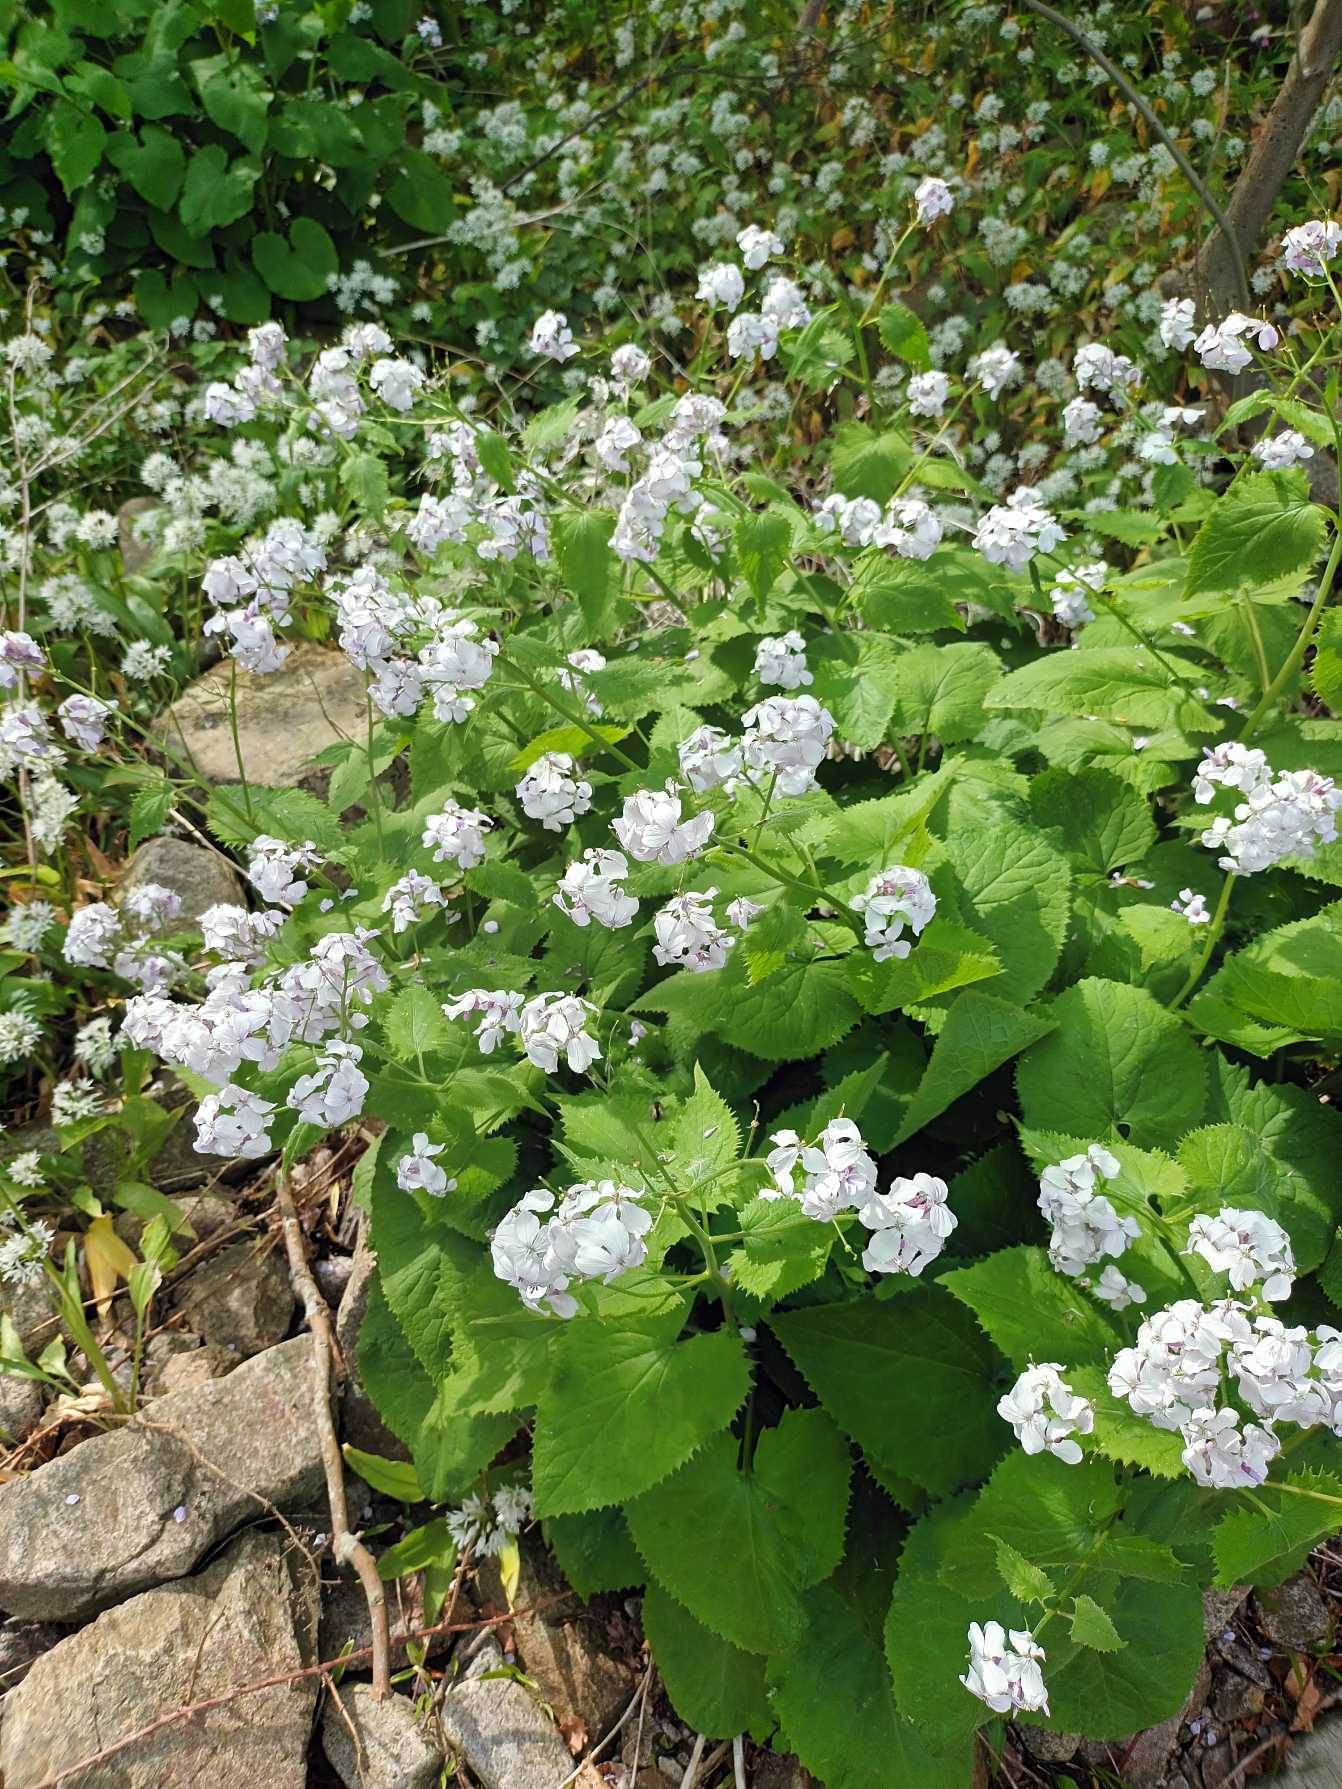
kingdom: Plantae
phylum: Tracheophyta
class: Magnoliopsida
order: Brassicales
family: Brassicaceae
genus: Lunaria
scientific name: Lunaria rediviva
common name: Vedvarende måneskulpe
